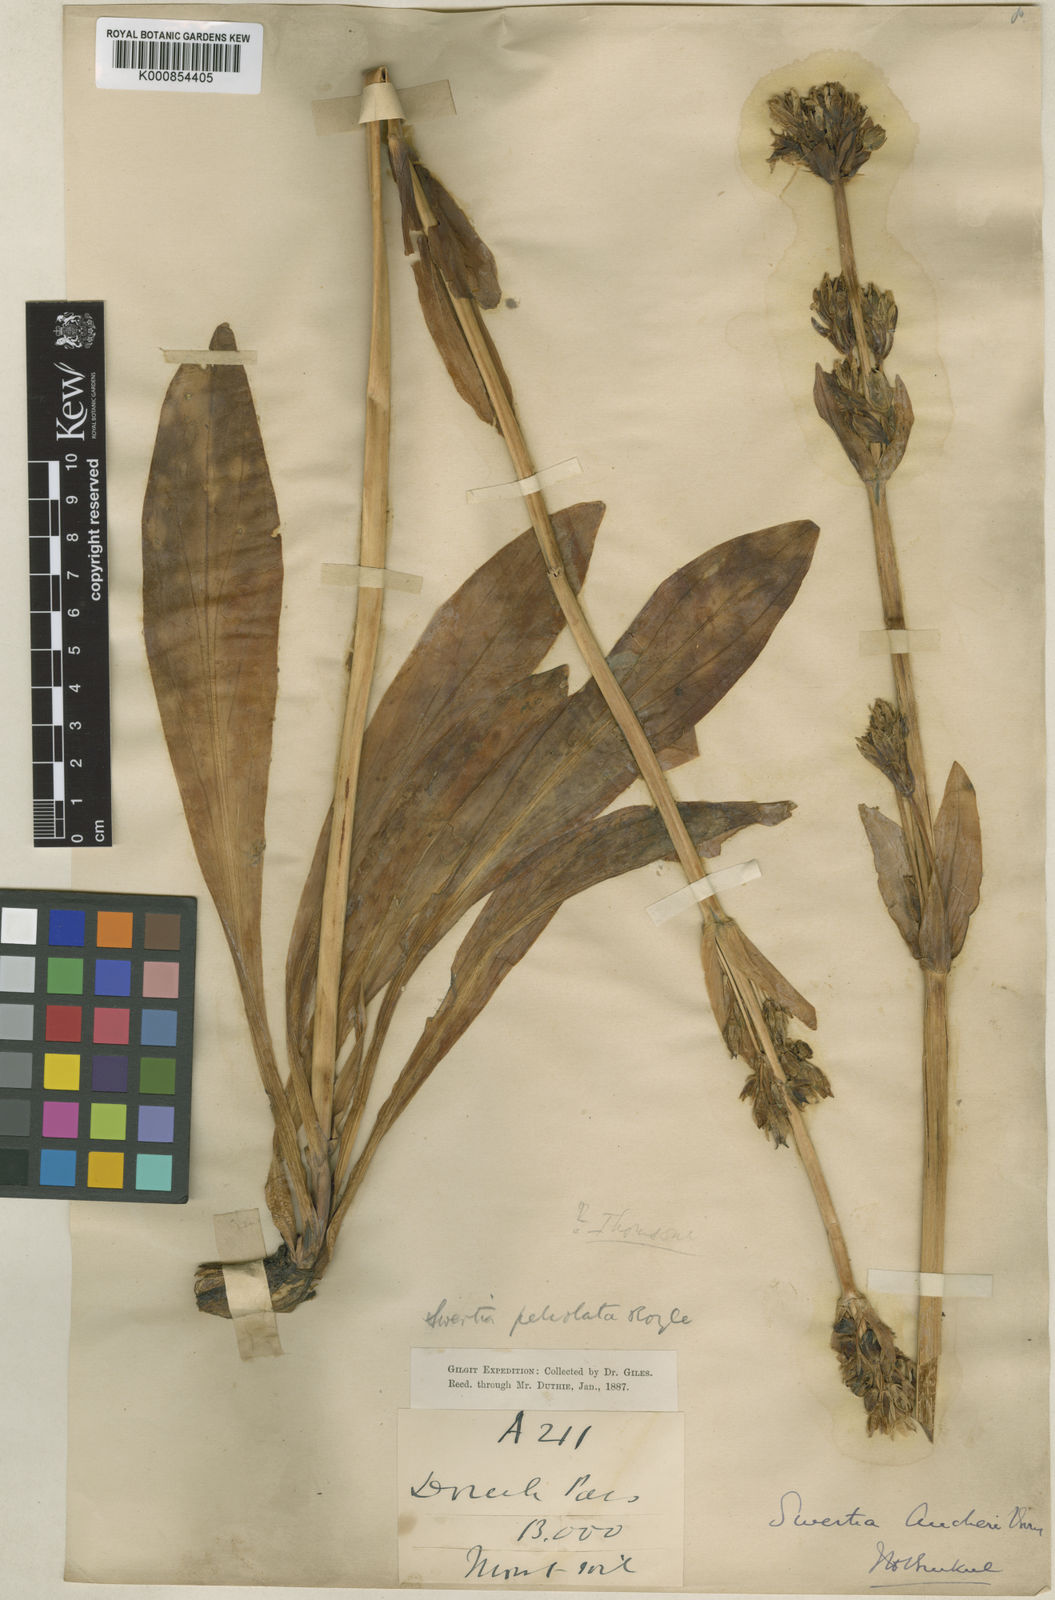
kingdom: Plantae
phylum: Tracheophyta
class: Magnoliopsida
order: Gentianales
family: Gentianaceae
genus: Swertia
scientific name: Swertia longifolia
